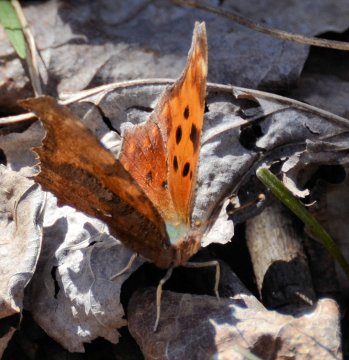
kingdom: Animalia
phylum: Arthropoda
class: Insecta
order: Lepidoptera
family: Nymphalidae
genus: Polygonia
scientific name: Polygonia interrogationis
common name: Question Mark
